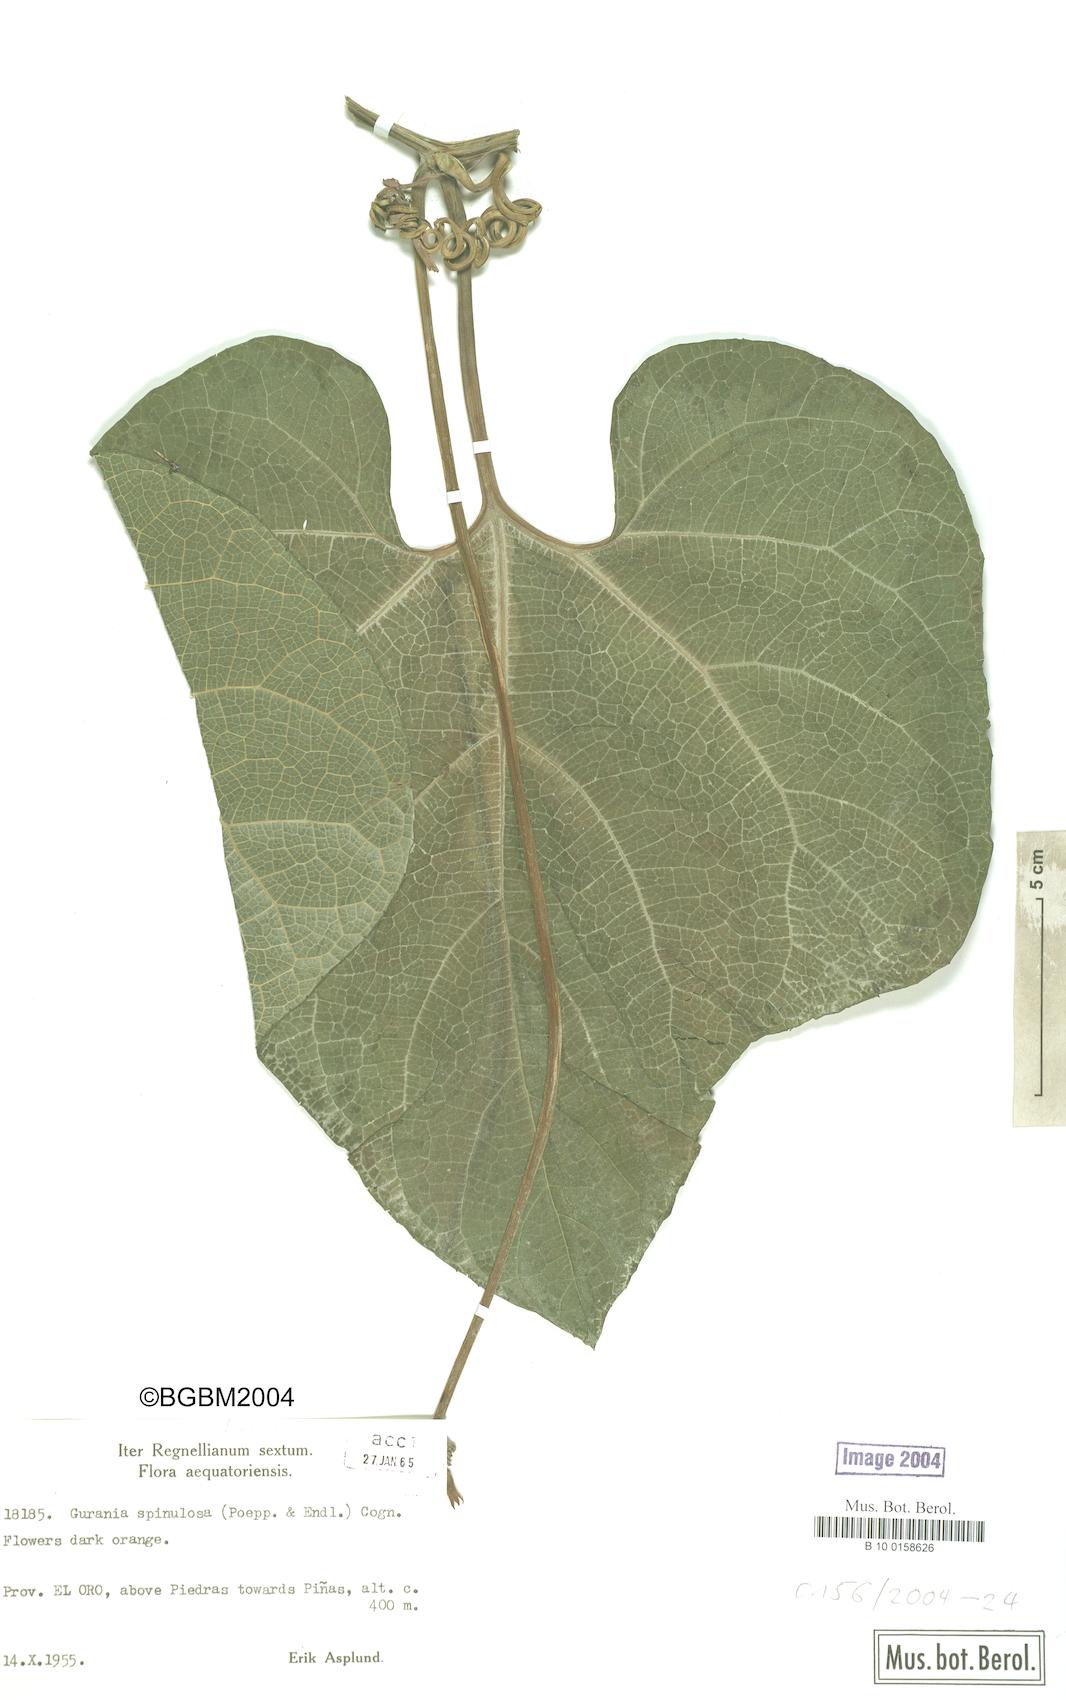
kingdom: Plantae
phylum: Tracheophyta
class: Magnoliopsida
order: Cucurbitales
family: Cucurbitaceae
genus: Gurania
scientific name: Gurania lobata
